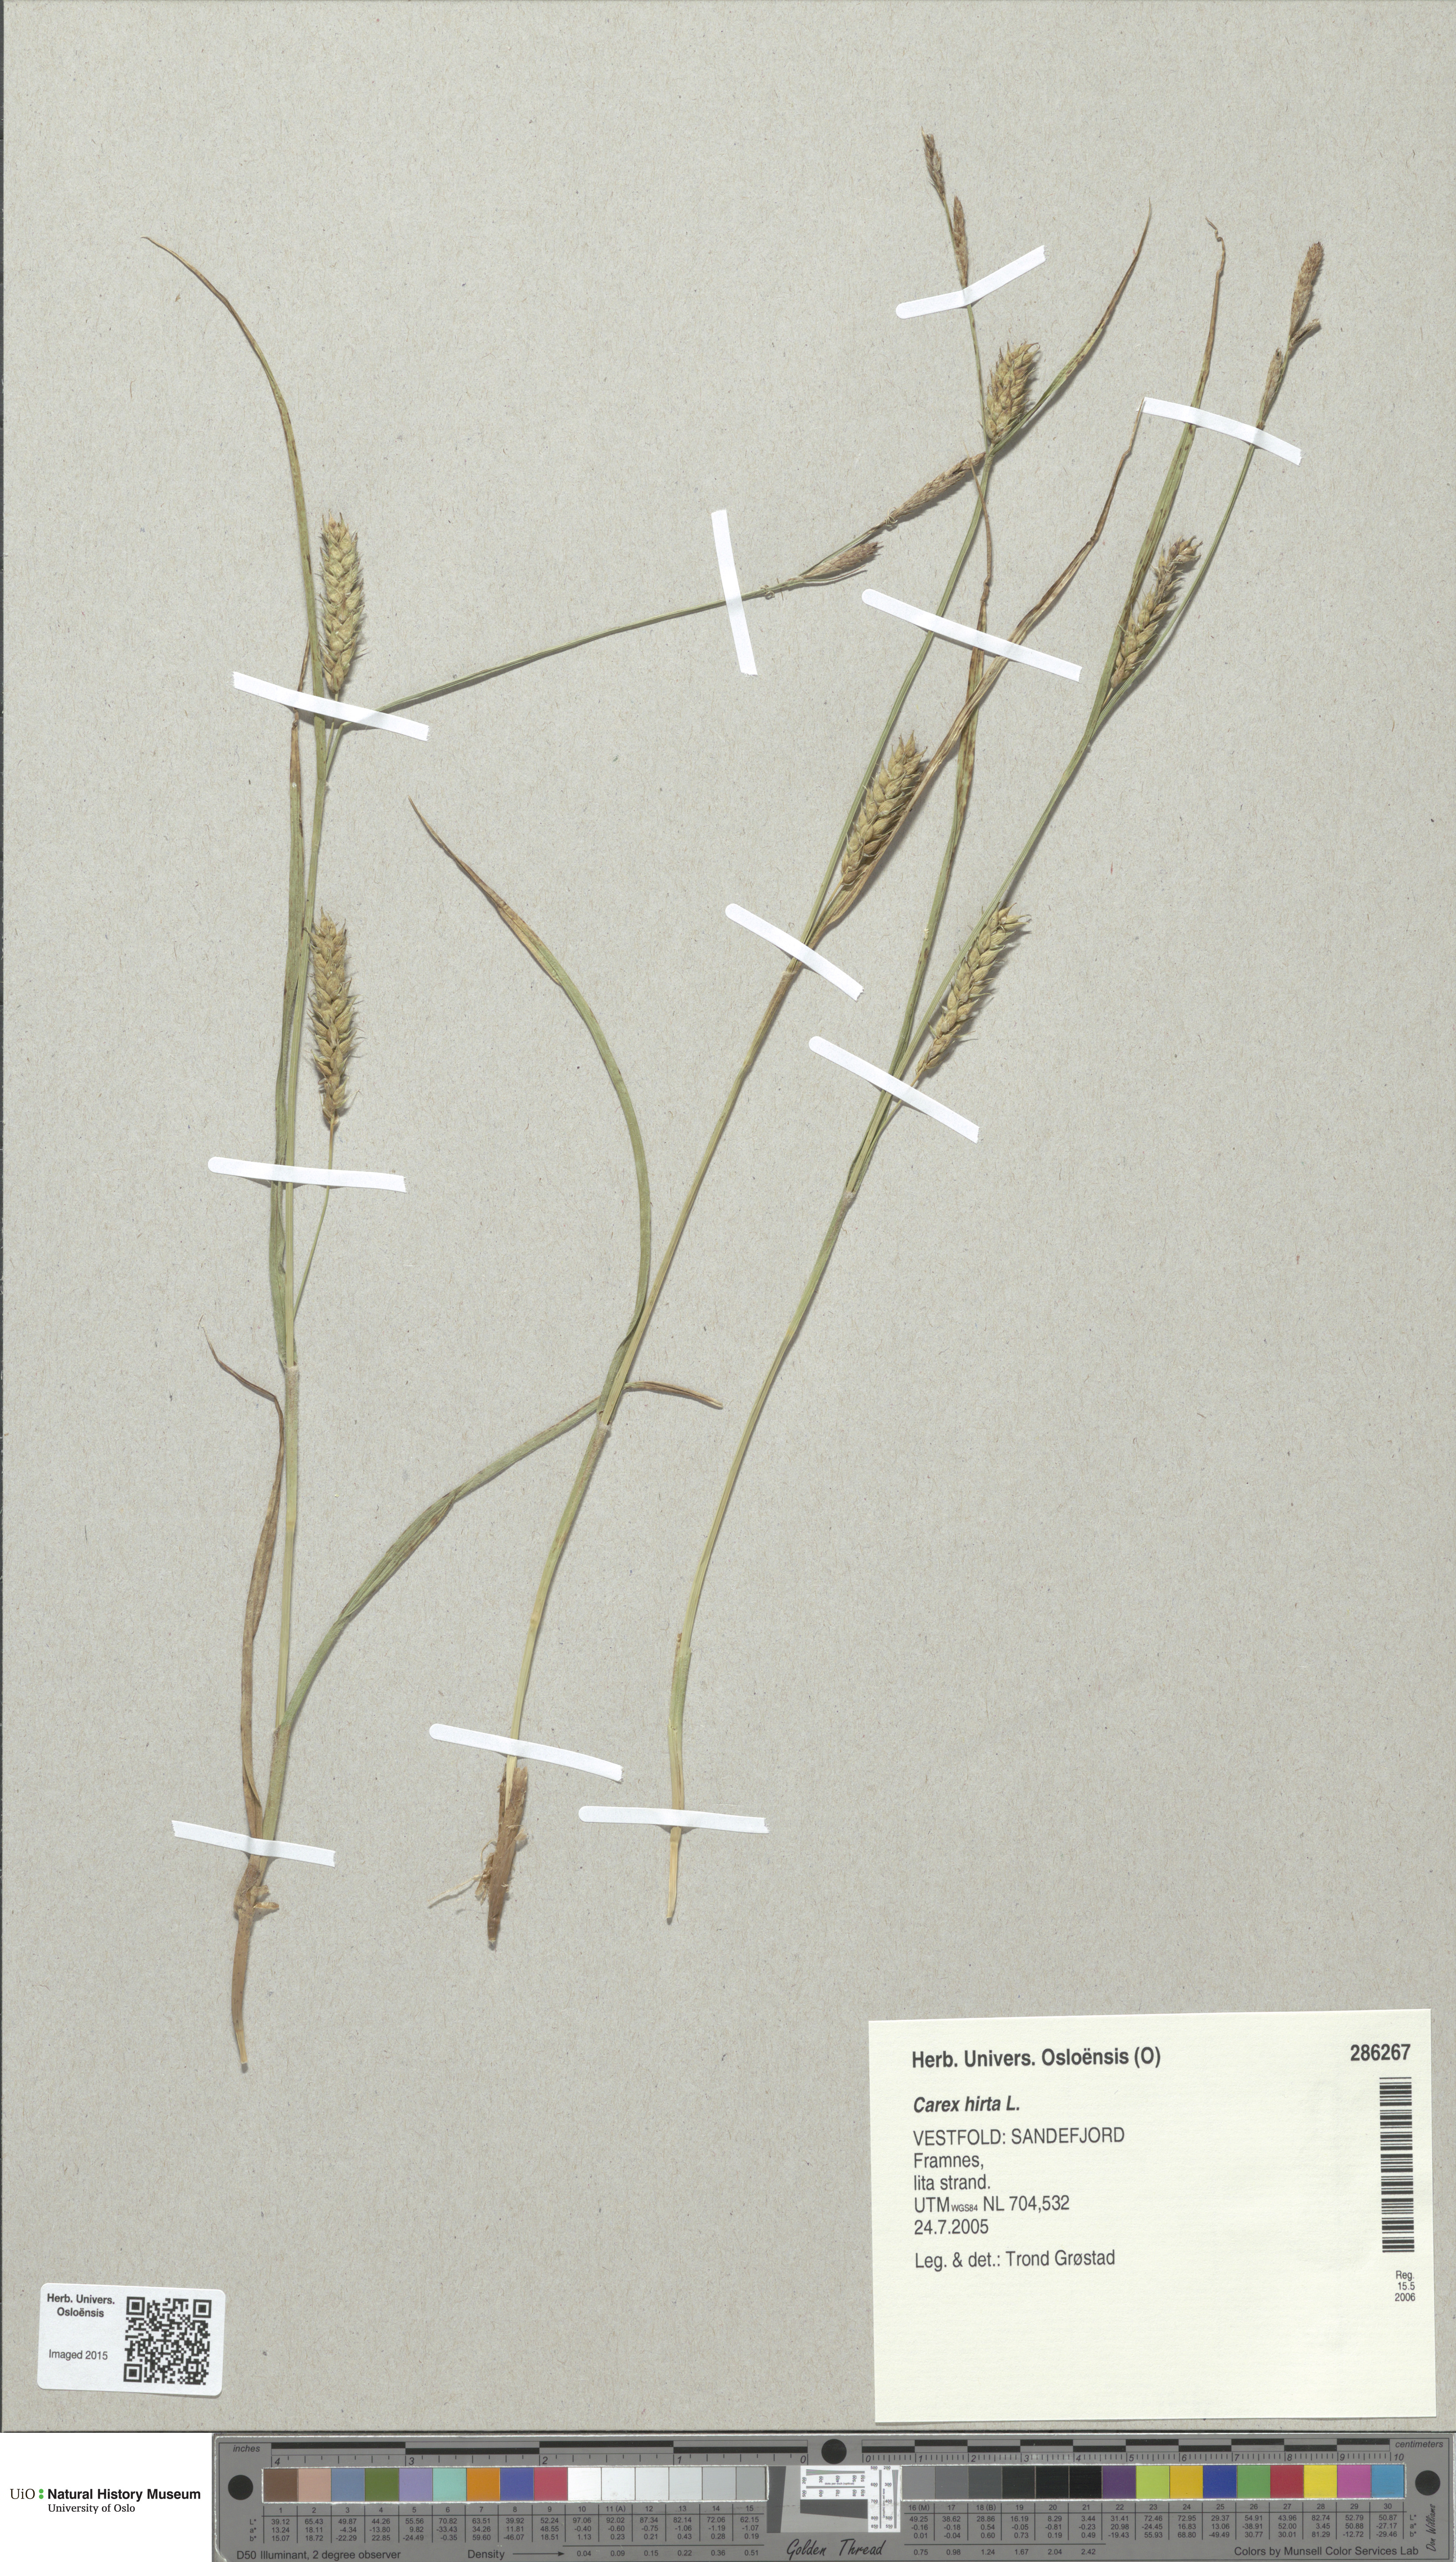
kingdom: Plantae
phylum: Tracheophyta
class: Liliopsida
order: Poales
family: Cyperaceae
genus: Carex
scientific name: Carex hirta
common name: Hairy sedge
